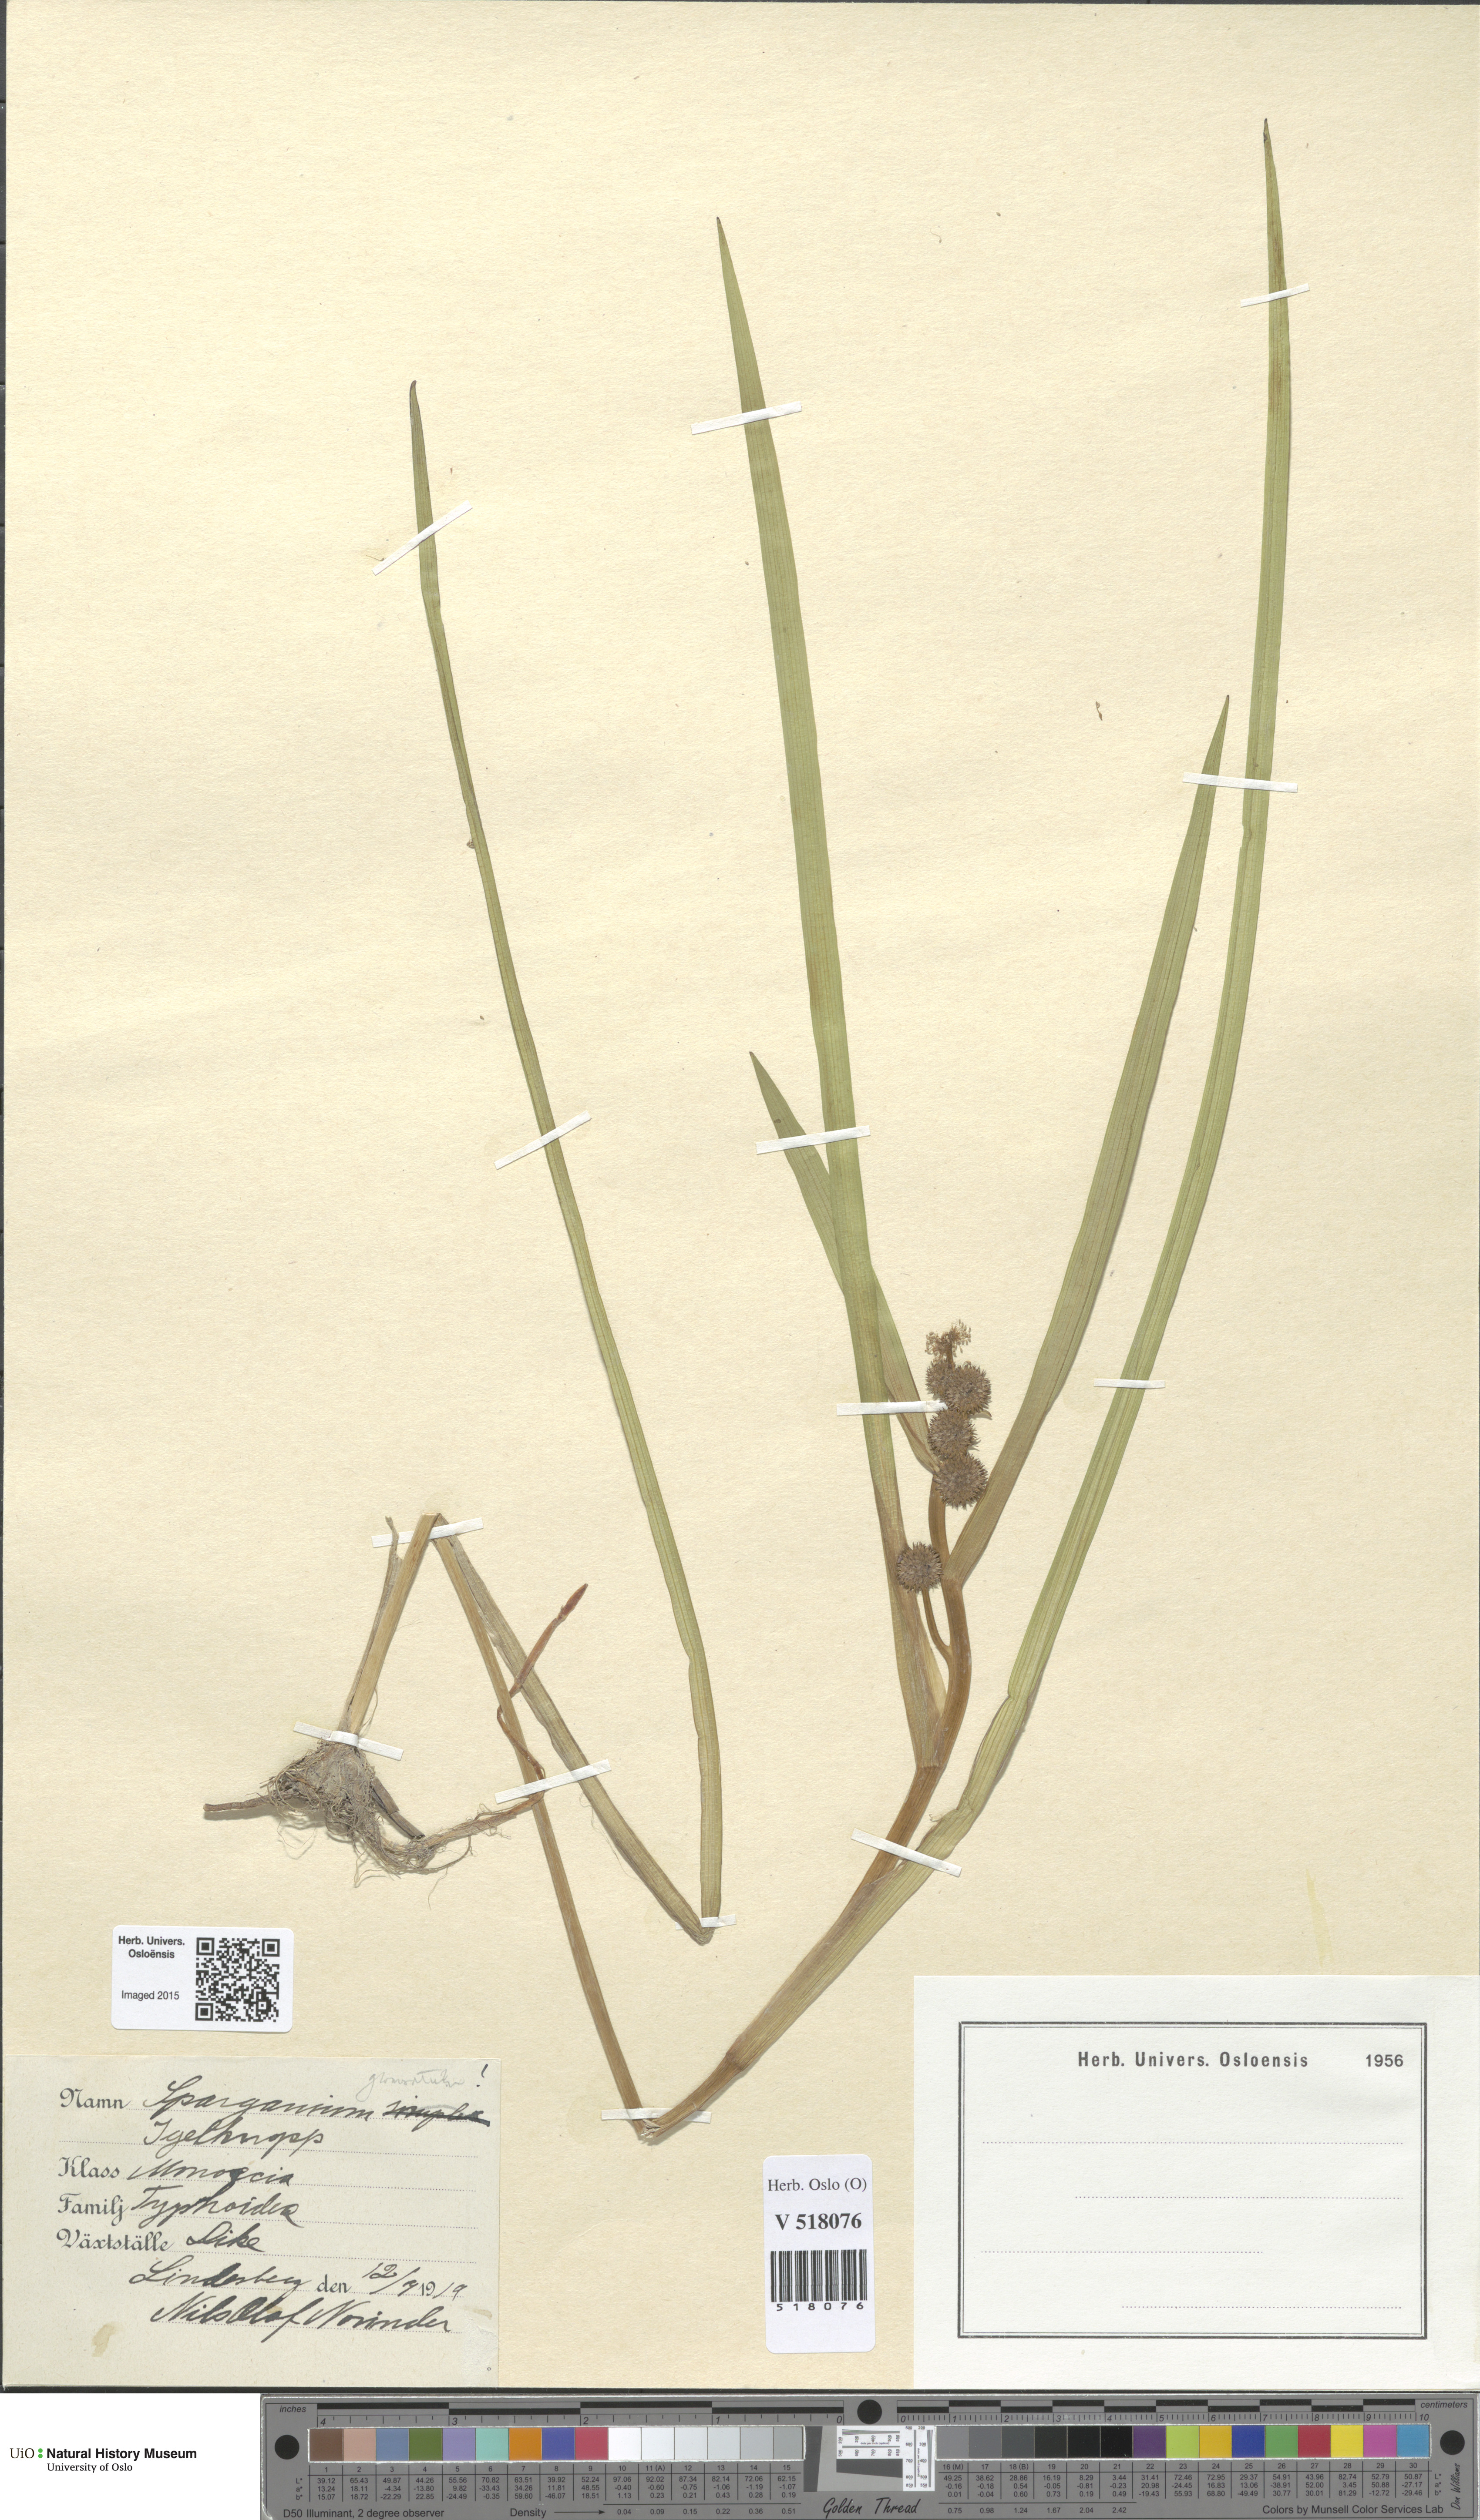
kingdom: Plantae
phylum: Tracheophyta
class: Liliopsida
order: Poales
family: Typhaceae
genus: Sparganium
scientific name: Sparganium glomeratum
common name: Clustered burreed
